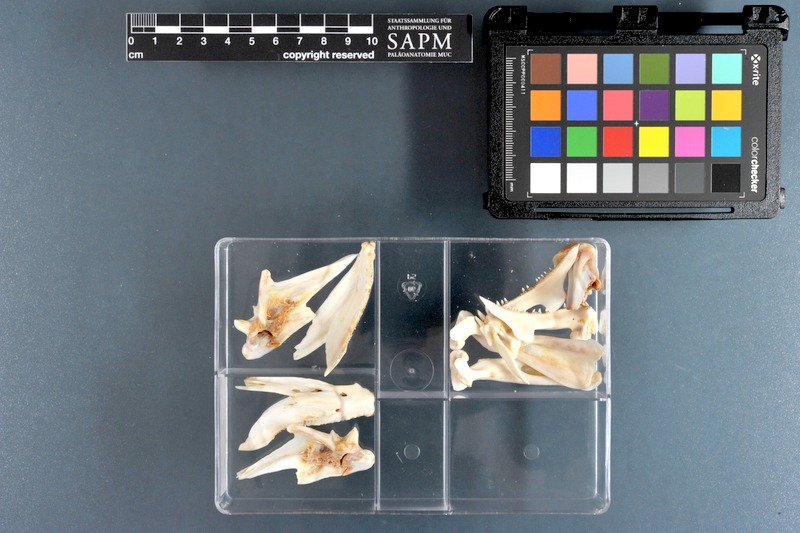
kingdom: Animalia
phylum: Chordata
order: Perciformes
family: Lutjanidae
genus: Lutjanus
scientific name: Lutjanus
